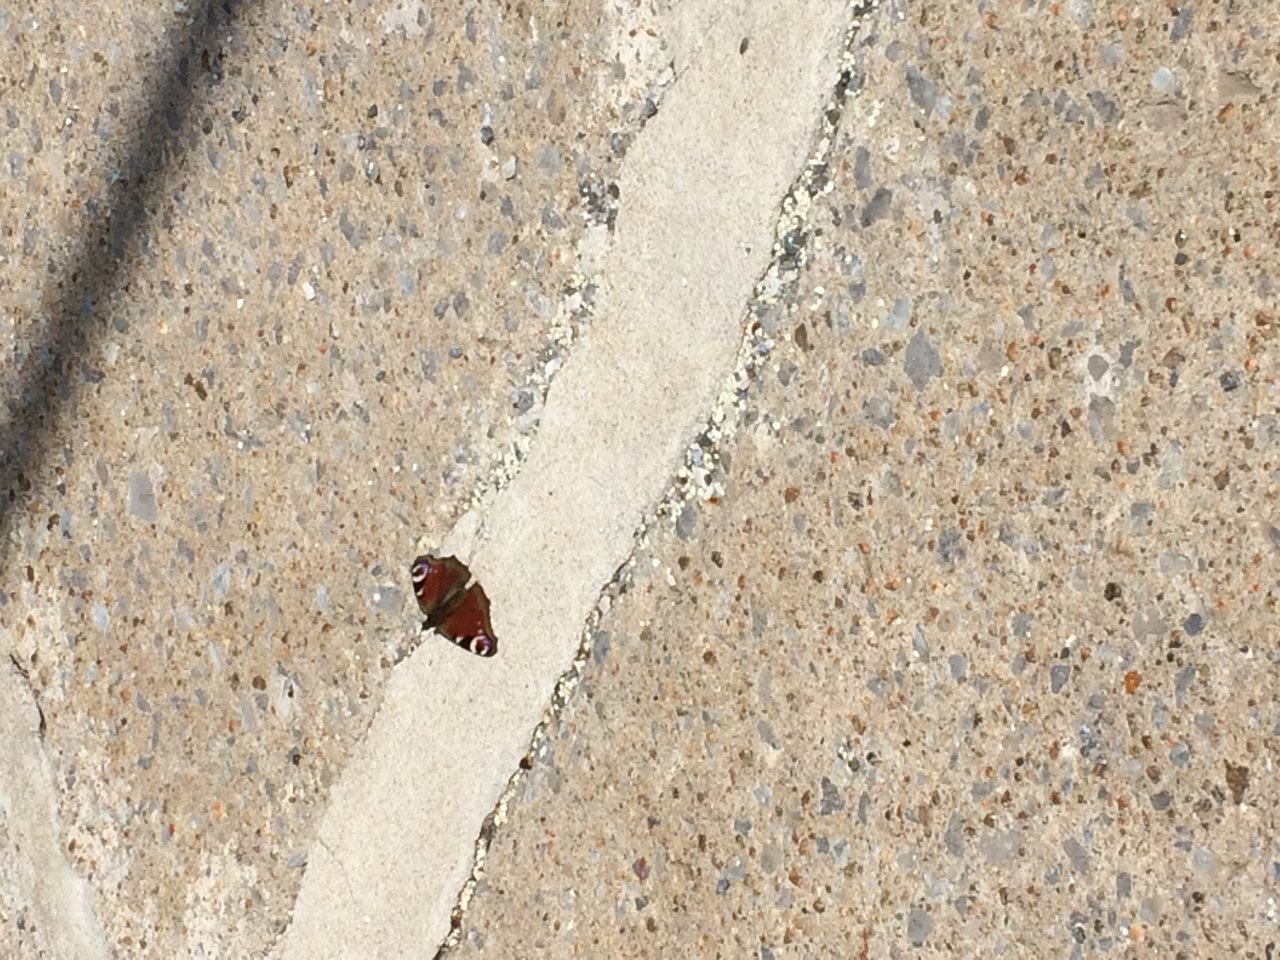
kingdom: Animalia
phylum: Arthropoda
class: Insecta
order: Lepidoptera
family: Nymphalidae
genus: Aglais
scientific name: Aglais io
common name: European Peacock
